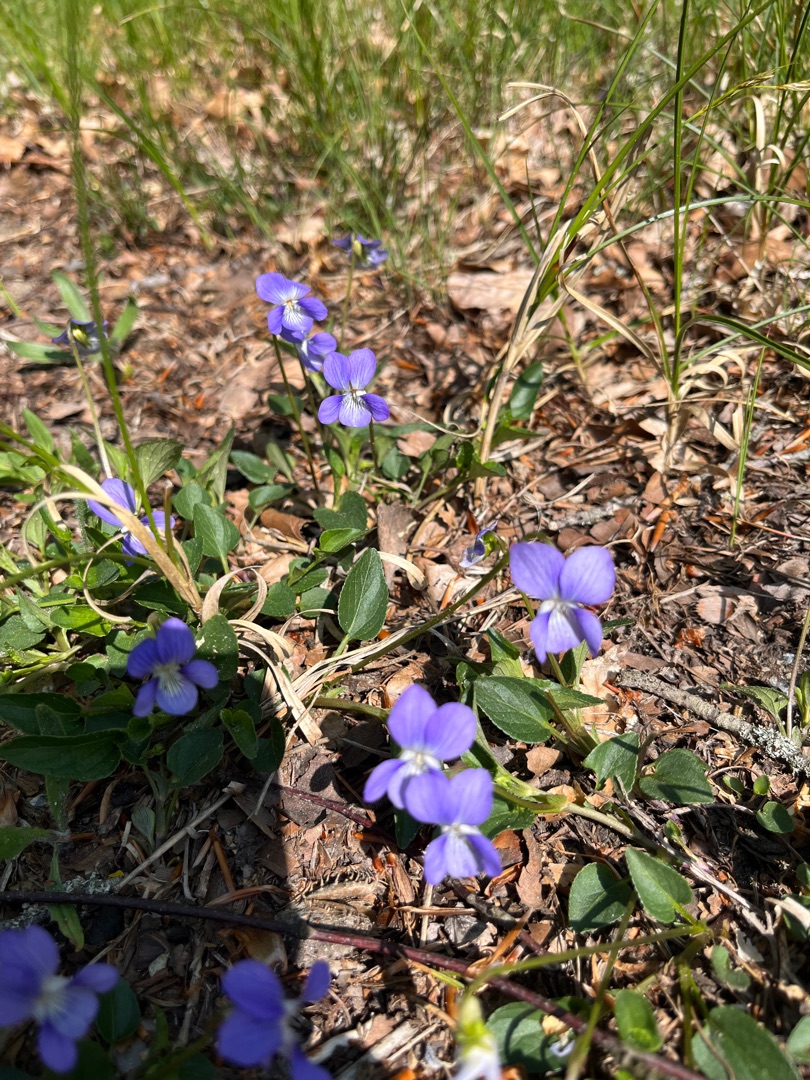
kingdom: Plantae
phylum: Tracheophyta
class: Magnoliopsida
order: Malpighiales
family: Violaceae
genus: Viola
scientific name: Viola canina
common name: Hunde-viol
